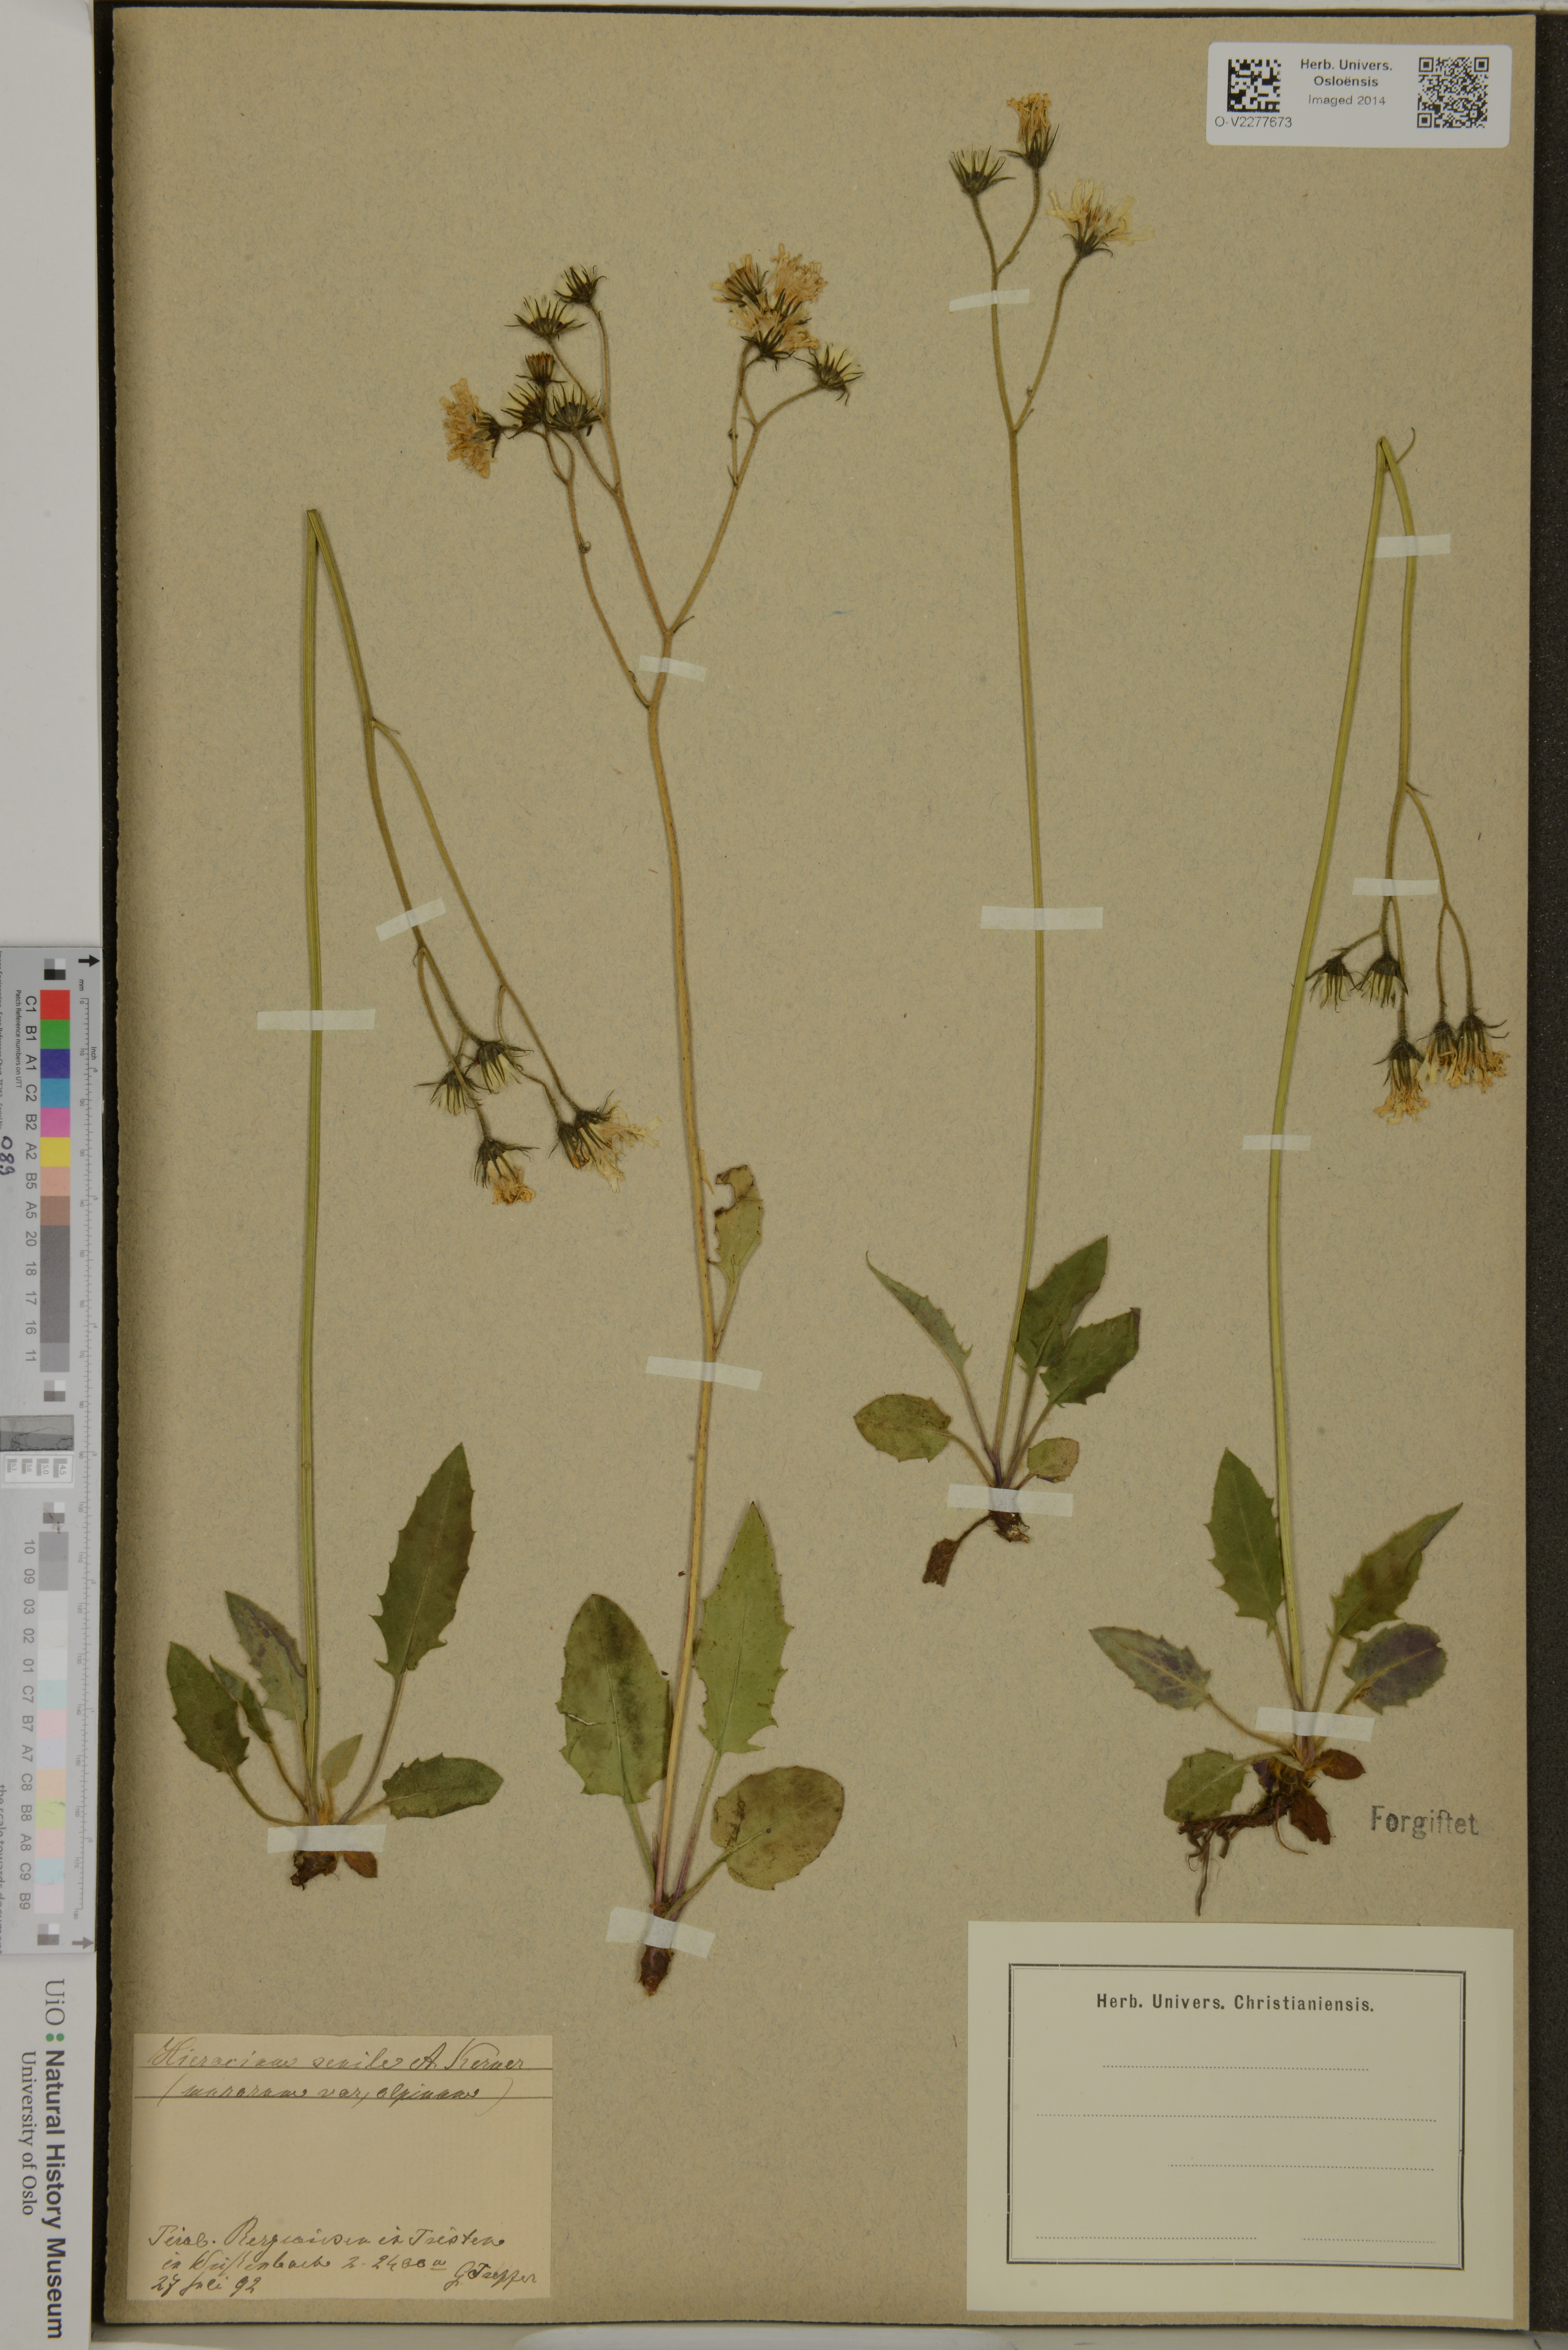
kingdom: Plantae
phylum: Tracheophyta
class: Magnoliopsida
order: Asterales
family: Asteraceae
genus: Hieracium
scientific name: Hieracium murorum
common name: Wall hawkweed
